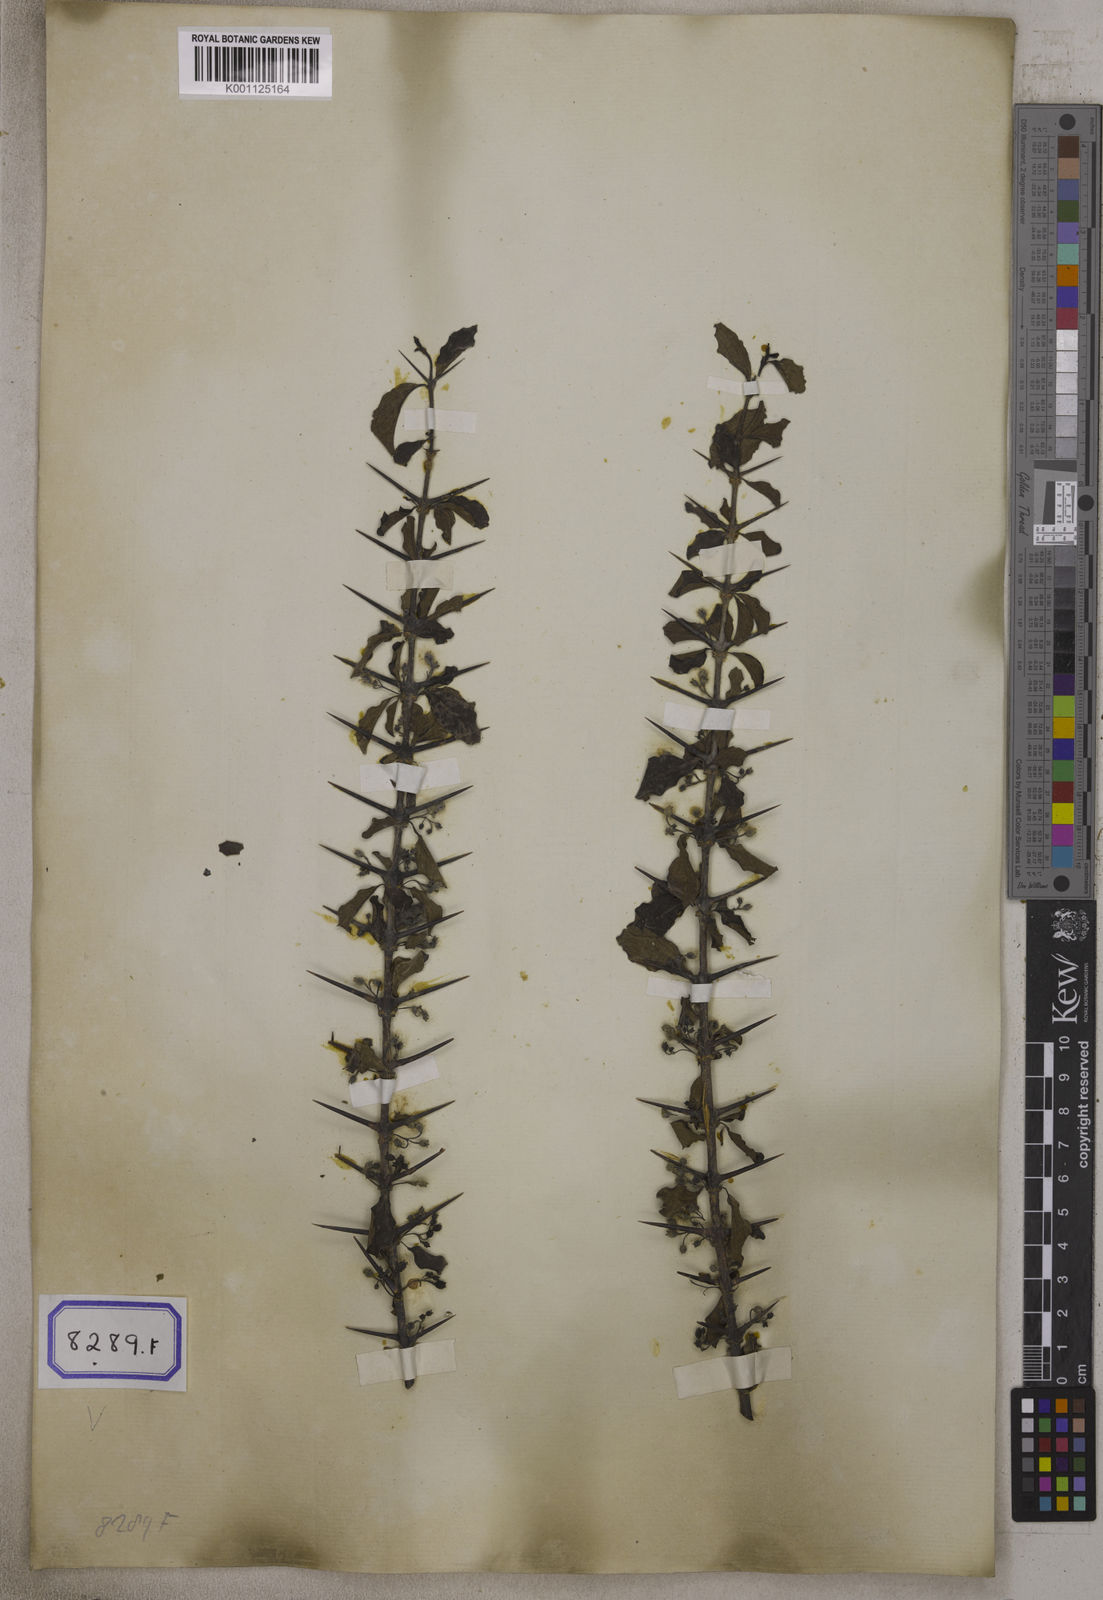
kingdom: Plantae
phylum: Tracheophyta
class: Magnoliopsida
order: Gentianales
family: Rubiaceae
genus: Canthium
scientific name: Canthium
